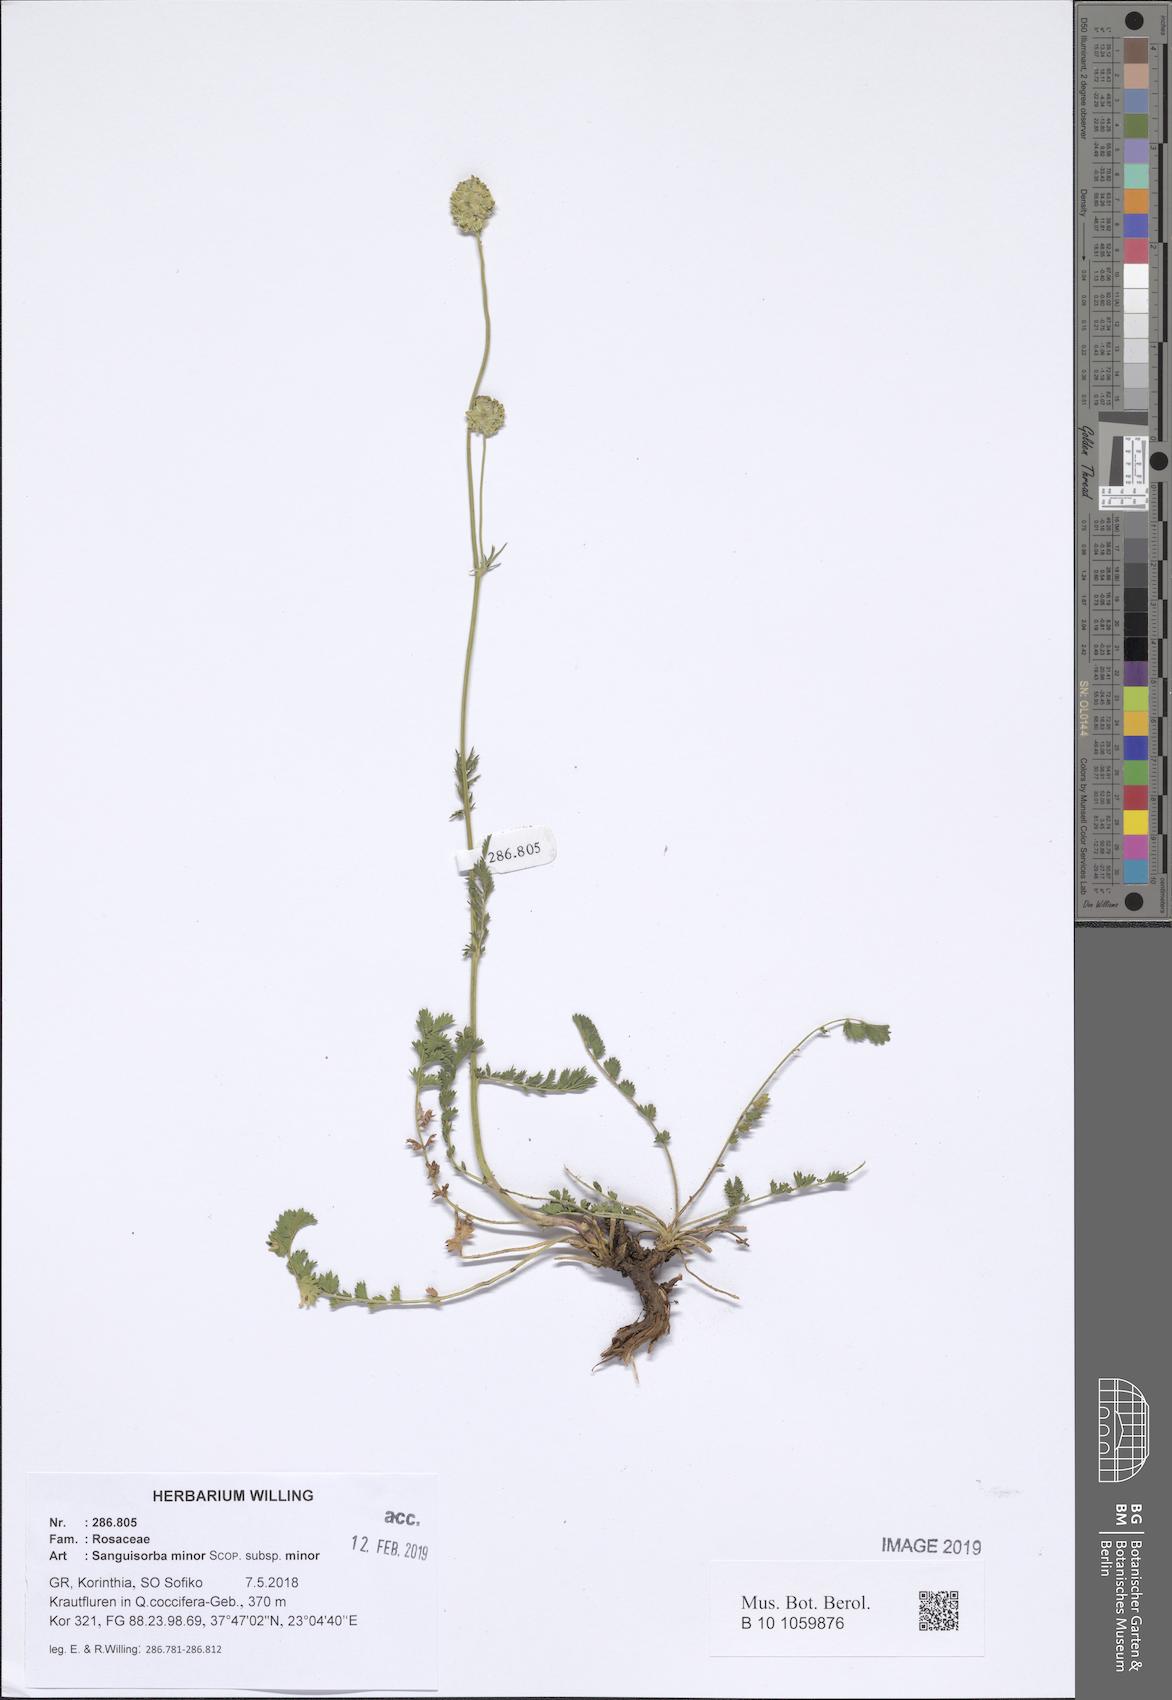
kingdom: Plantae
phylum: Tracheophyta
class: Magnoliopsida
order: Rosales
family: Rosaceae
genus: Poterium
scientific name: Poterium sanguisorba
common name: Salad burnet
